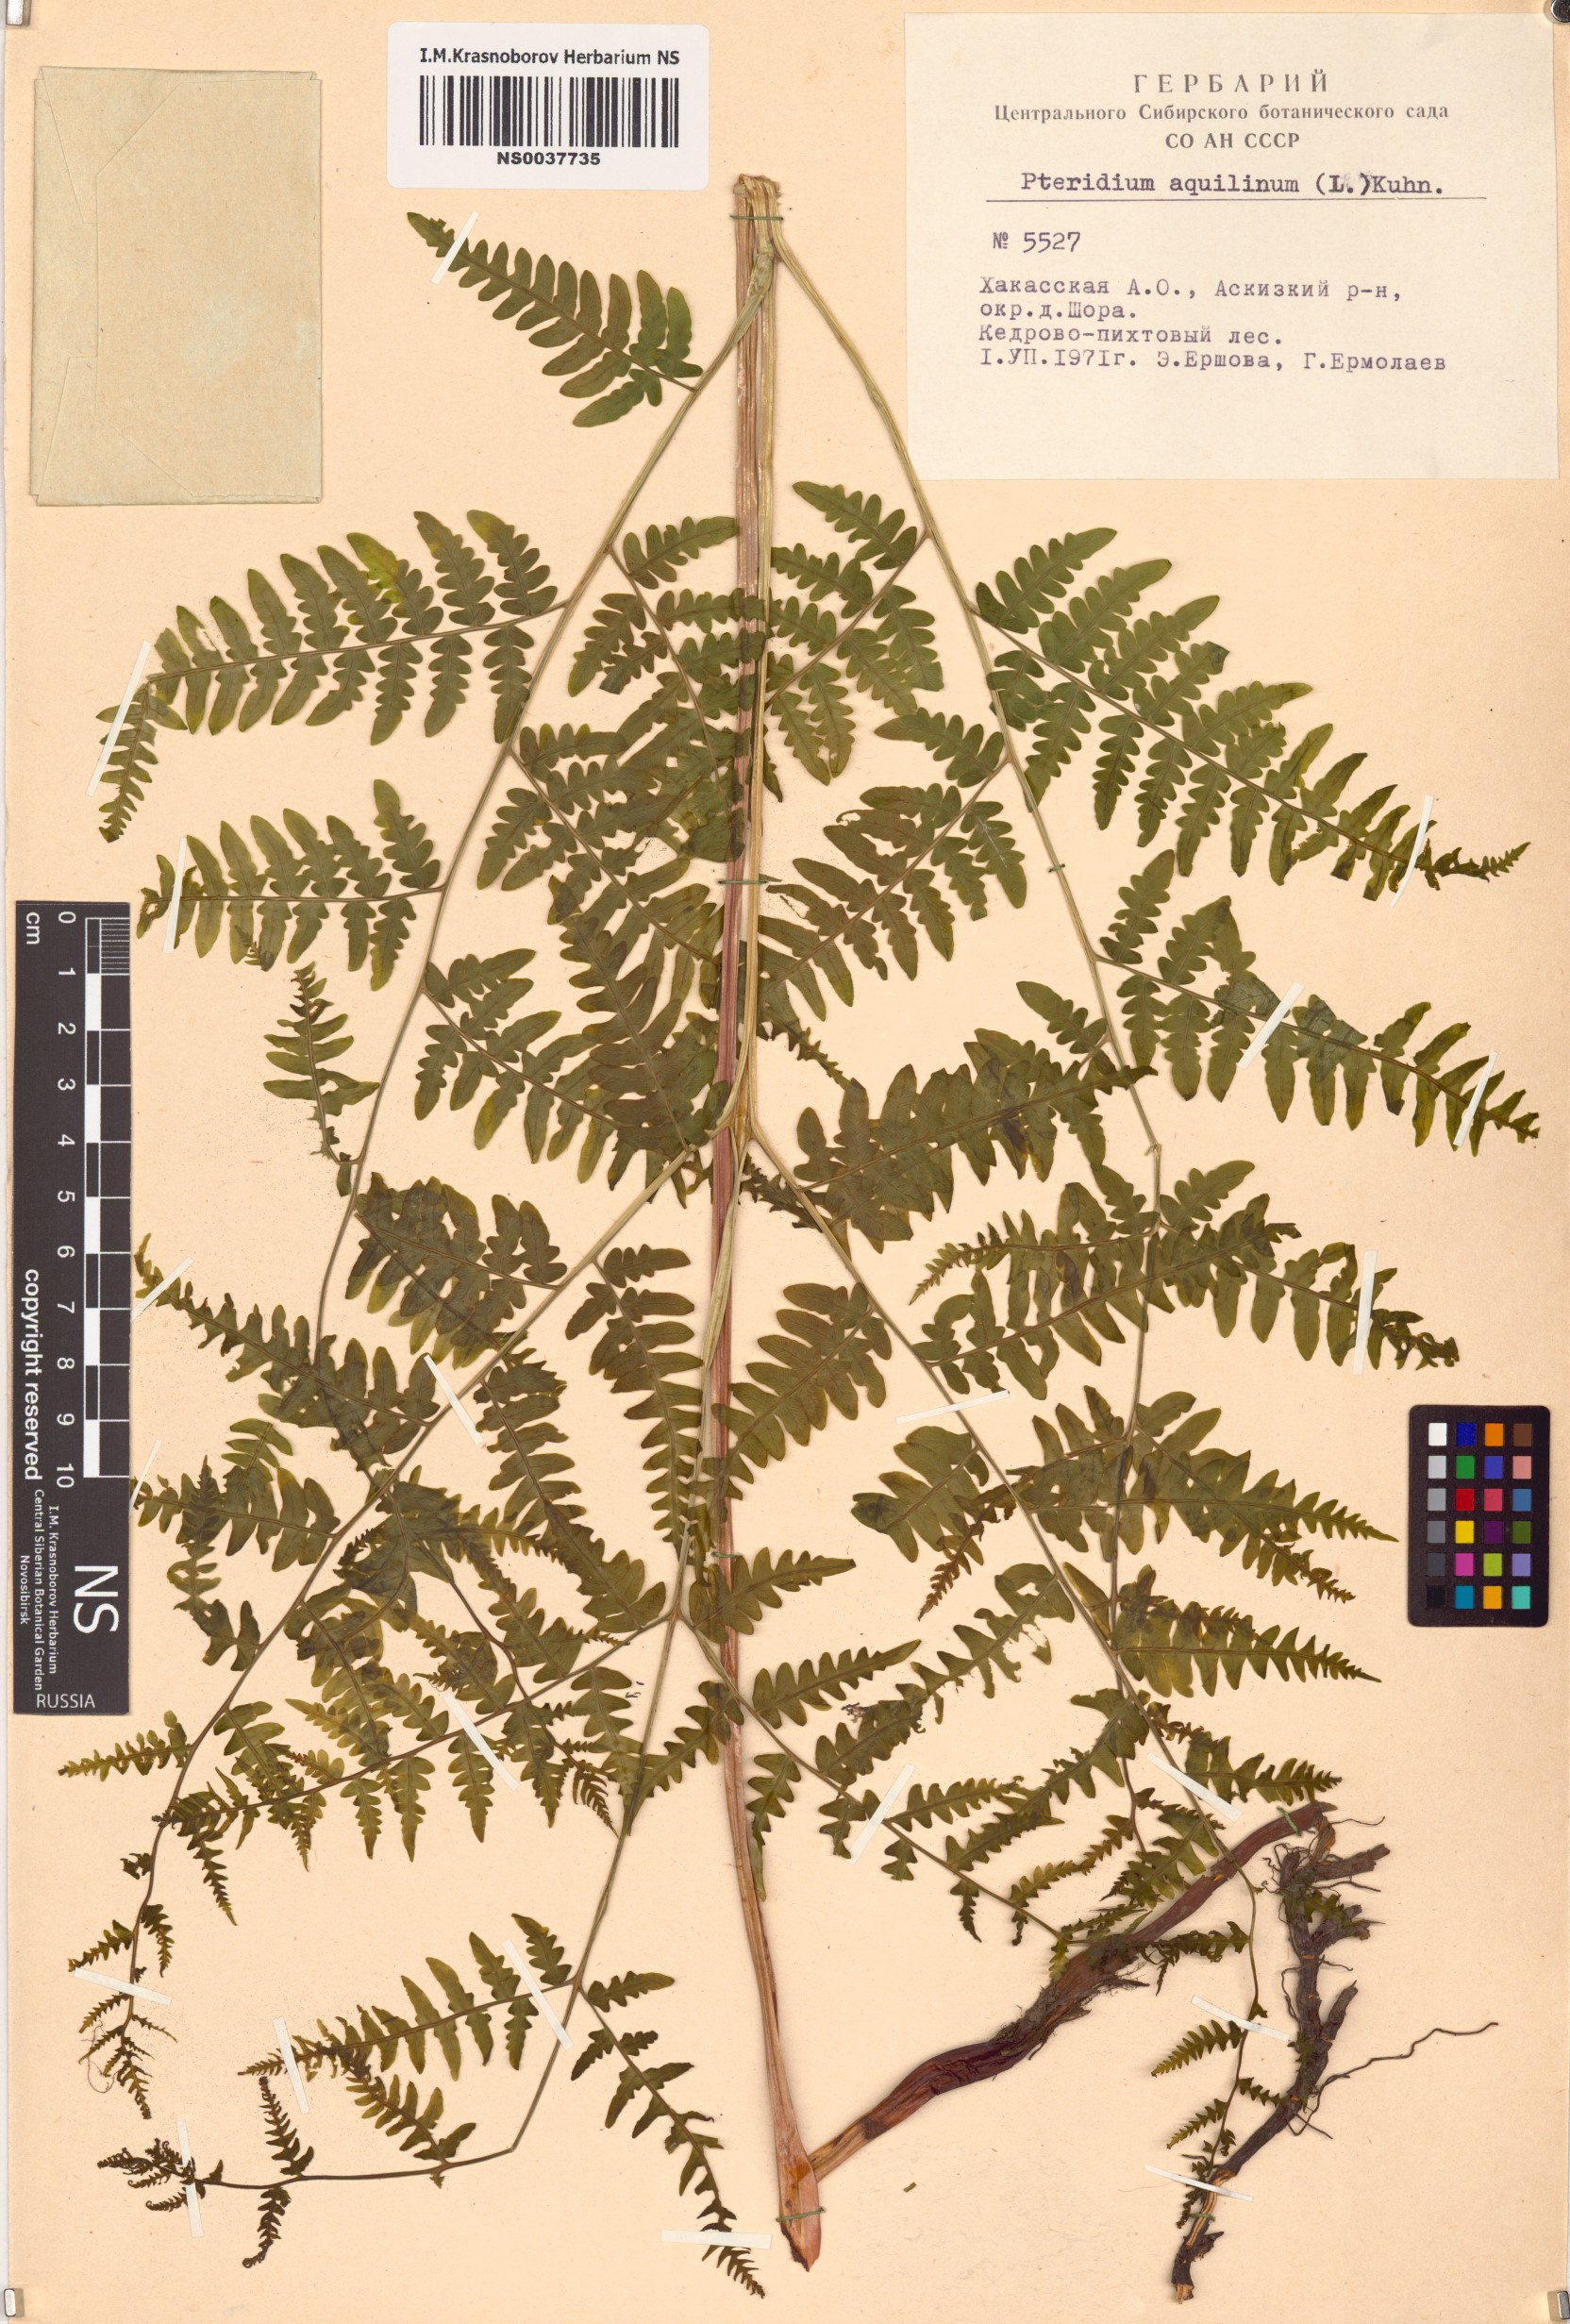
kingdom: Plantae
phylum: Tracheophyta
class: Polypodiopsida
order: Polypodiales
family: Dennstaedtiaceae
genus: Pteridium
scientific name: Pteridium aquilinum
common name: Bracken
